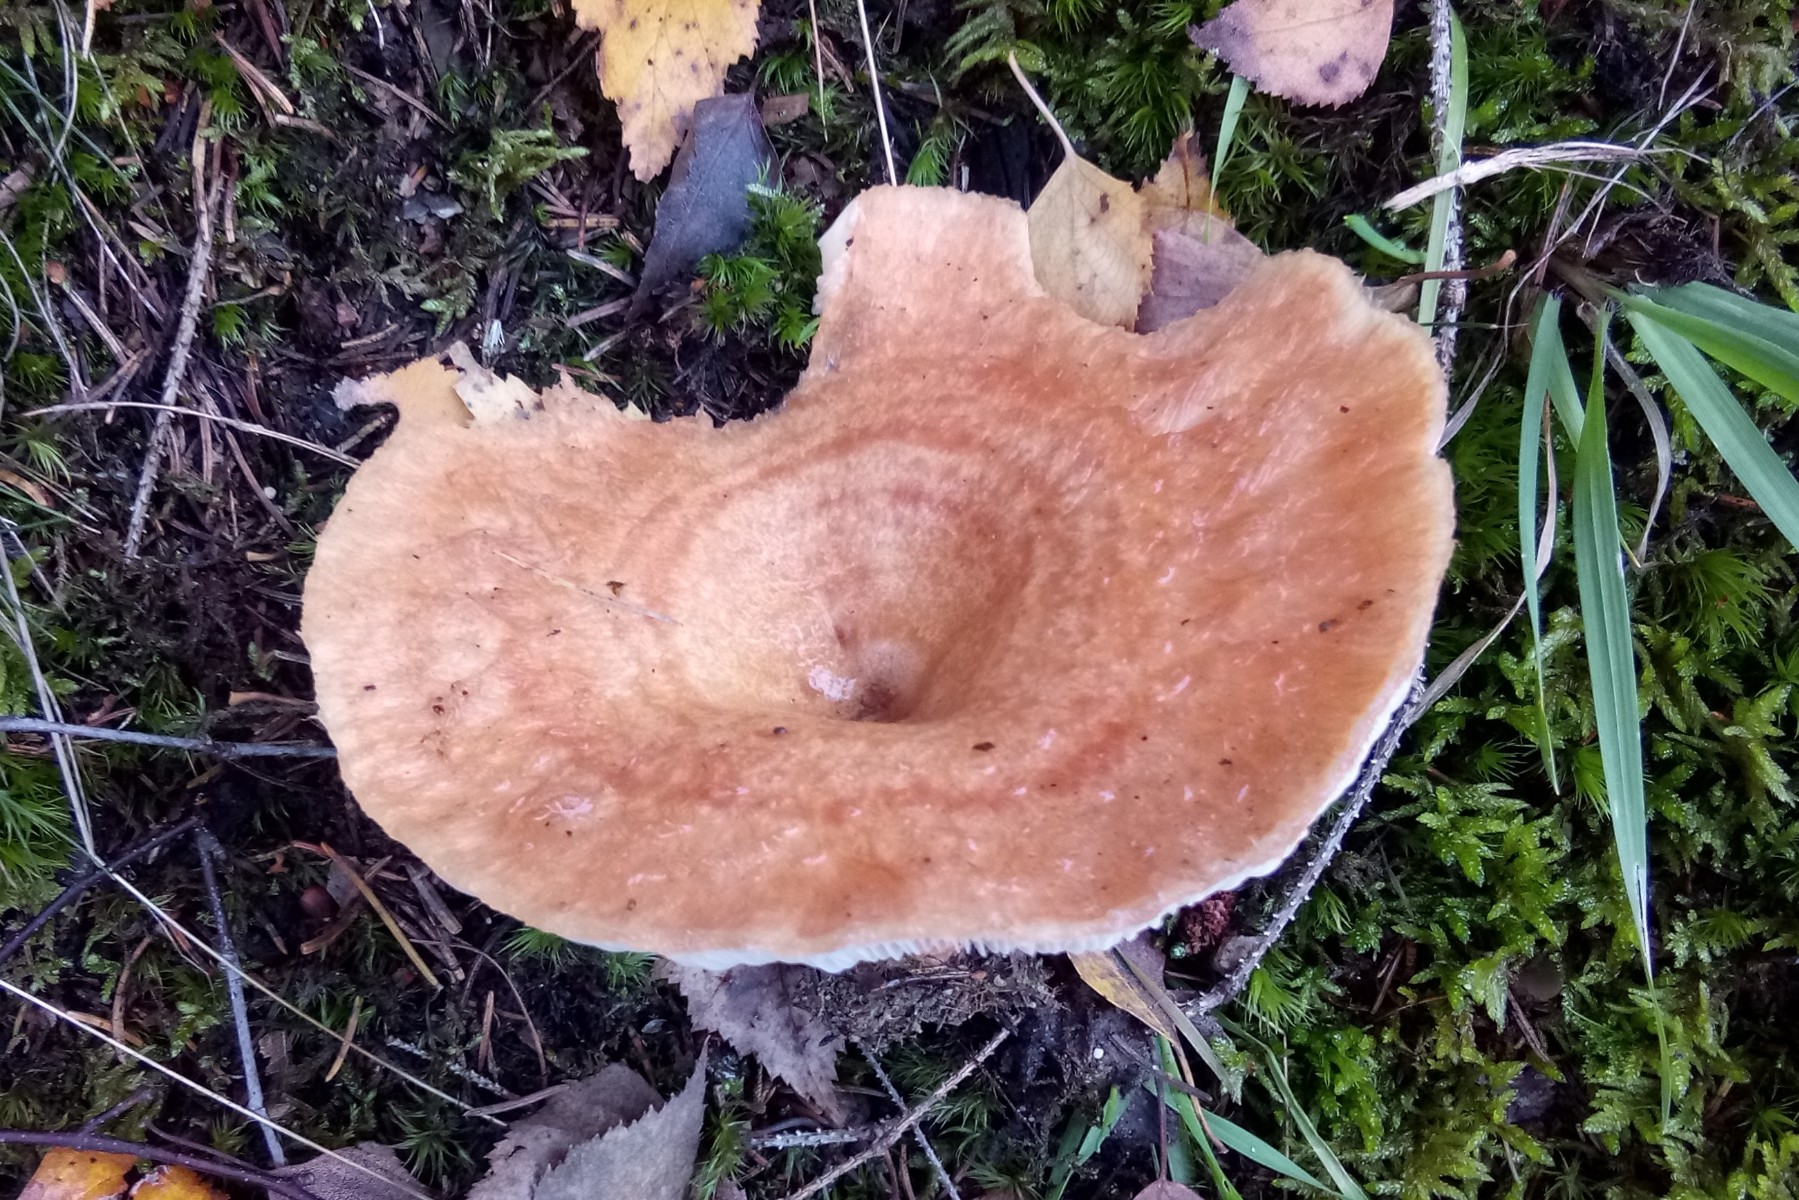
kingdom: Fungi
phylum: Basidiomycota
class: Agaricomycetes
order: Russulales
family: Russulaceae
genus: Lactarius
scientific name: Lactarius torminosus
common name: skægget mælkehat
